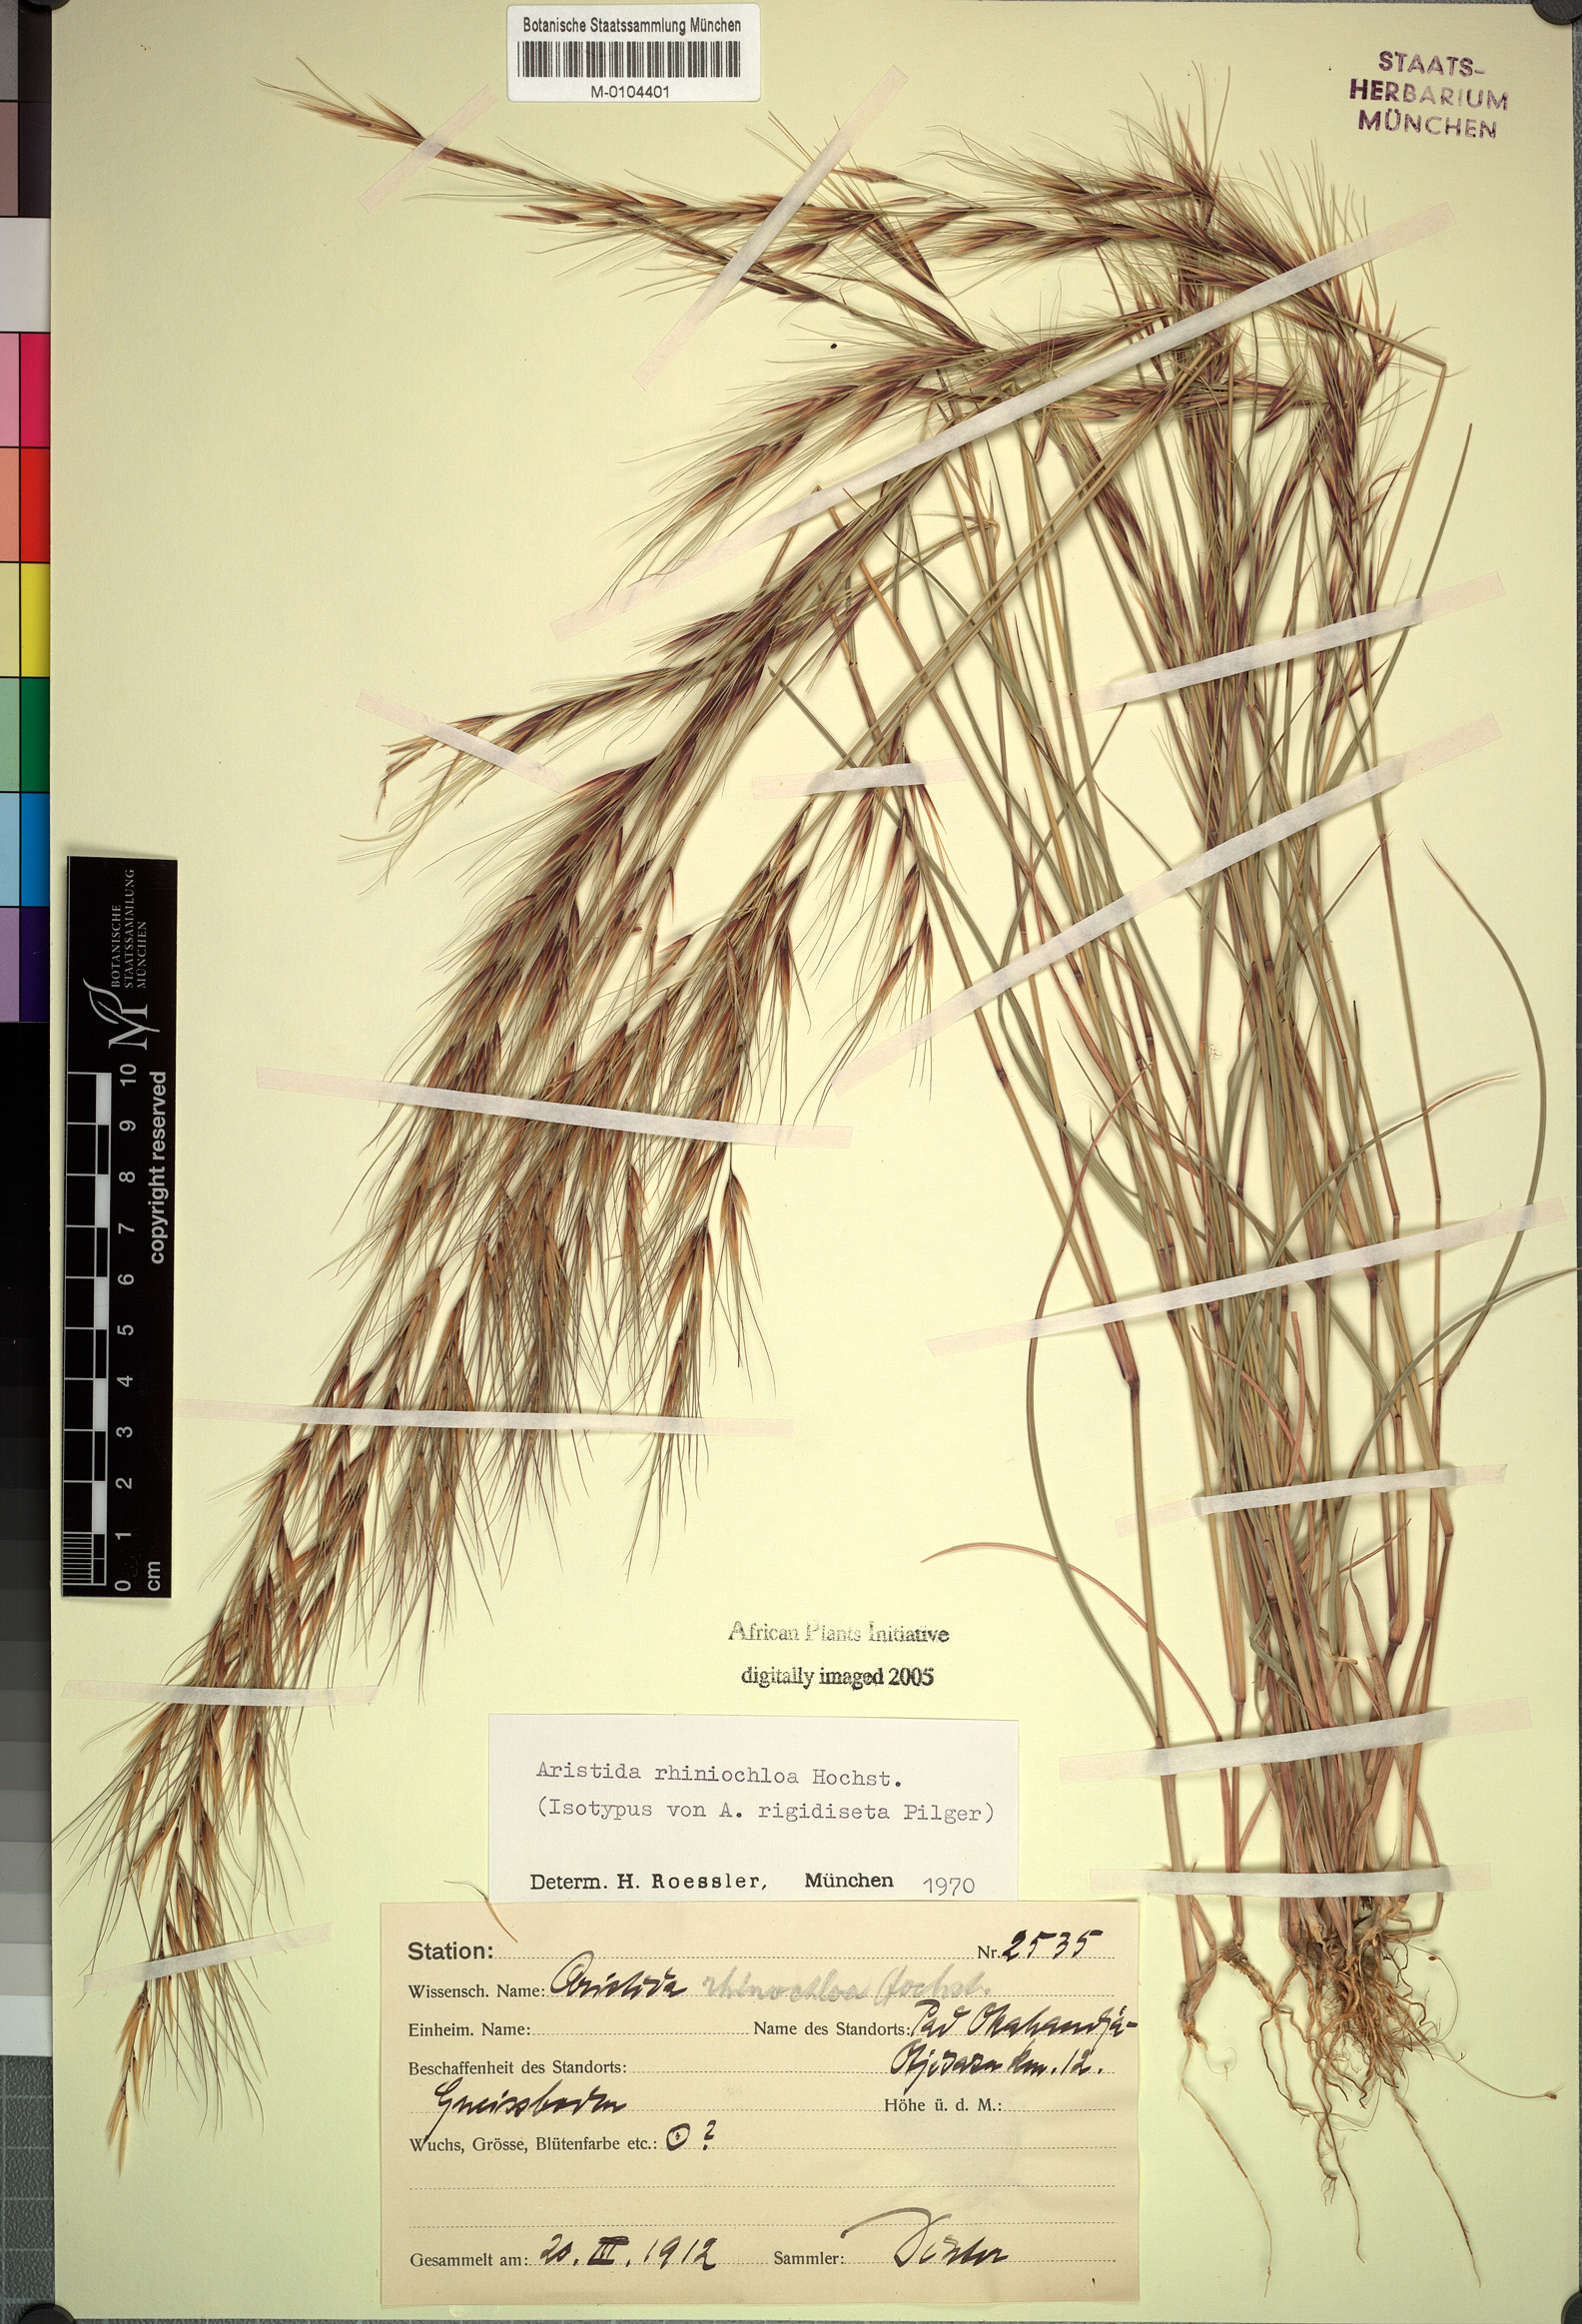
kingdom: Plantae
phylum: Tracheophyta
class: Liliopsida
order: Poales
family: Poaceae
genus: Aristida
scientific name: Aristida rhiniochloa
